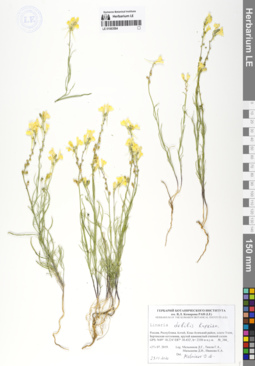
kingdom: Plantae
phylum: Tracheophyta
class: Magnoliopsida
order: Lamiales
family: Plantaginaceae
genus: Linaria
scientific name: Linaria altaica
